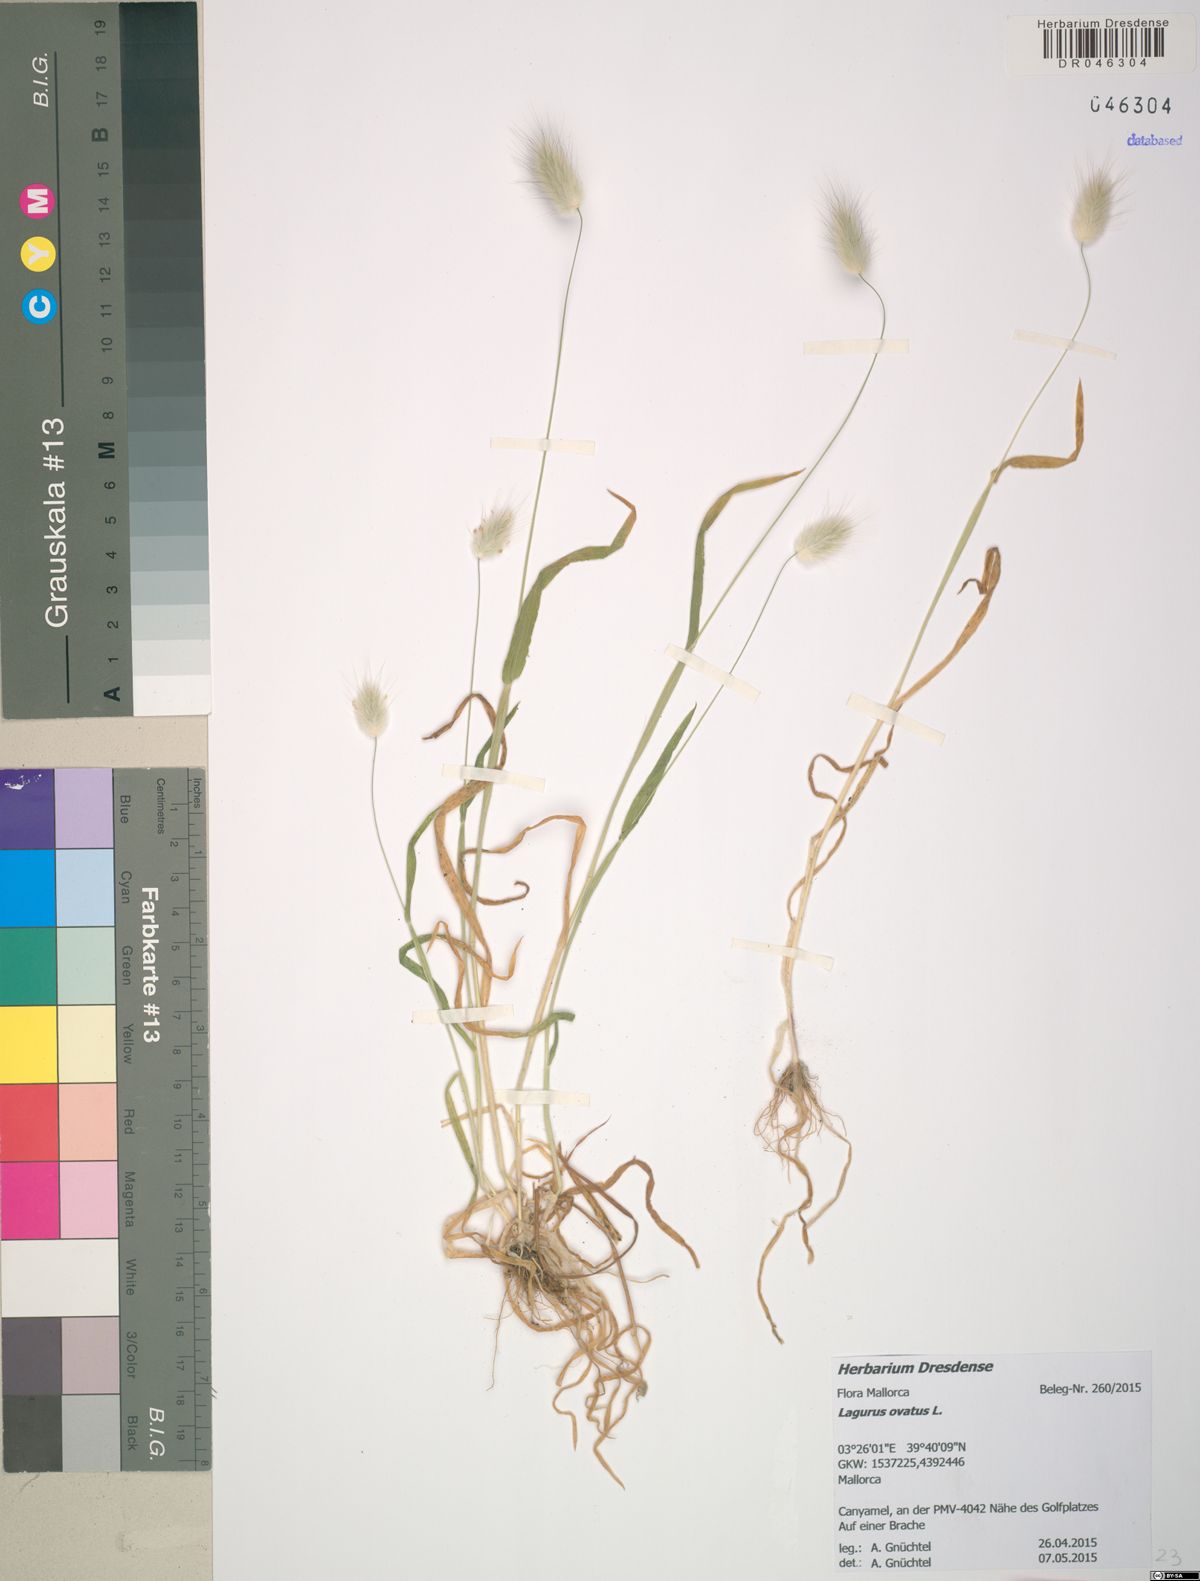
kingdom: Plantae
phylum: Tracheophyta
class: Liliopsida
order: Poales
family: Poaceae
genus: Lagurus
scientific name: Lagurus ovatus
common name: Hare's-tail
